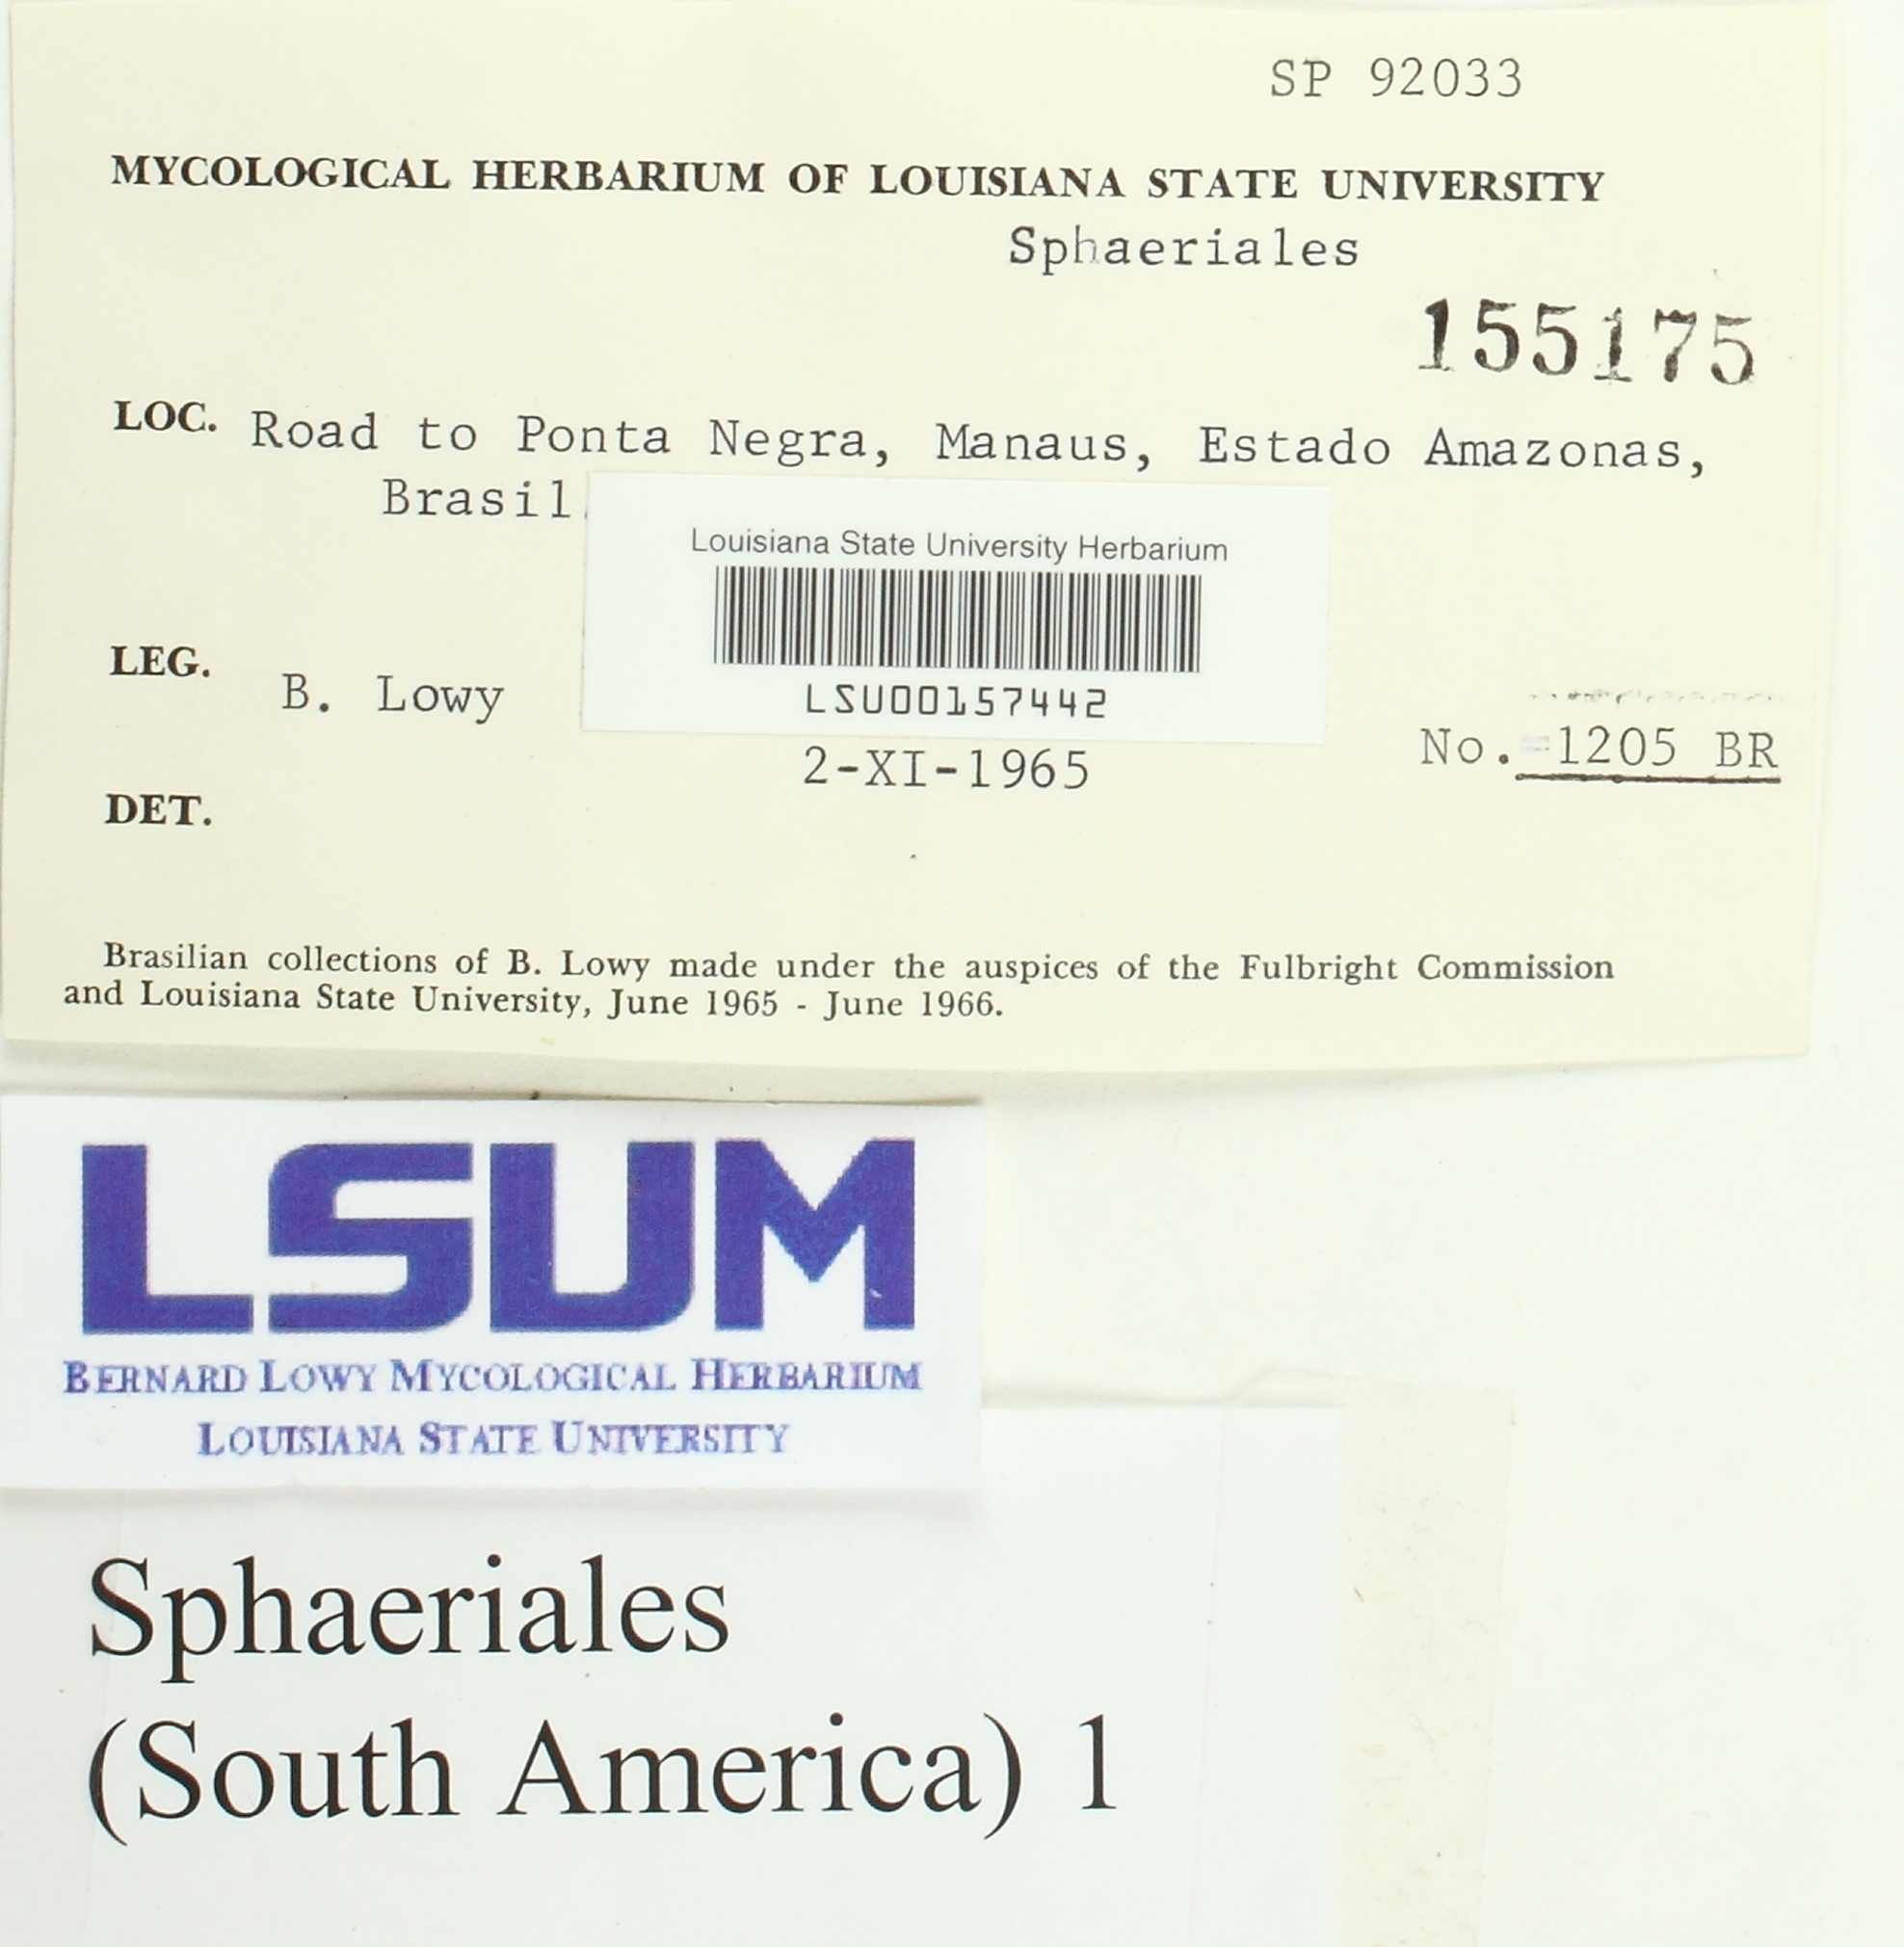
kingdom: Fungi
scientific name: Fungi
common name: Fungi
